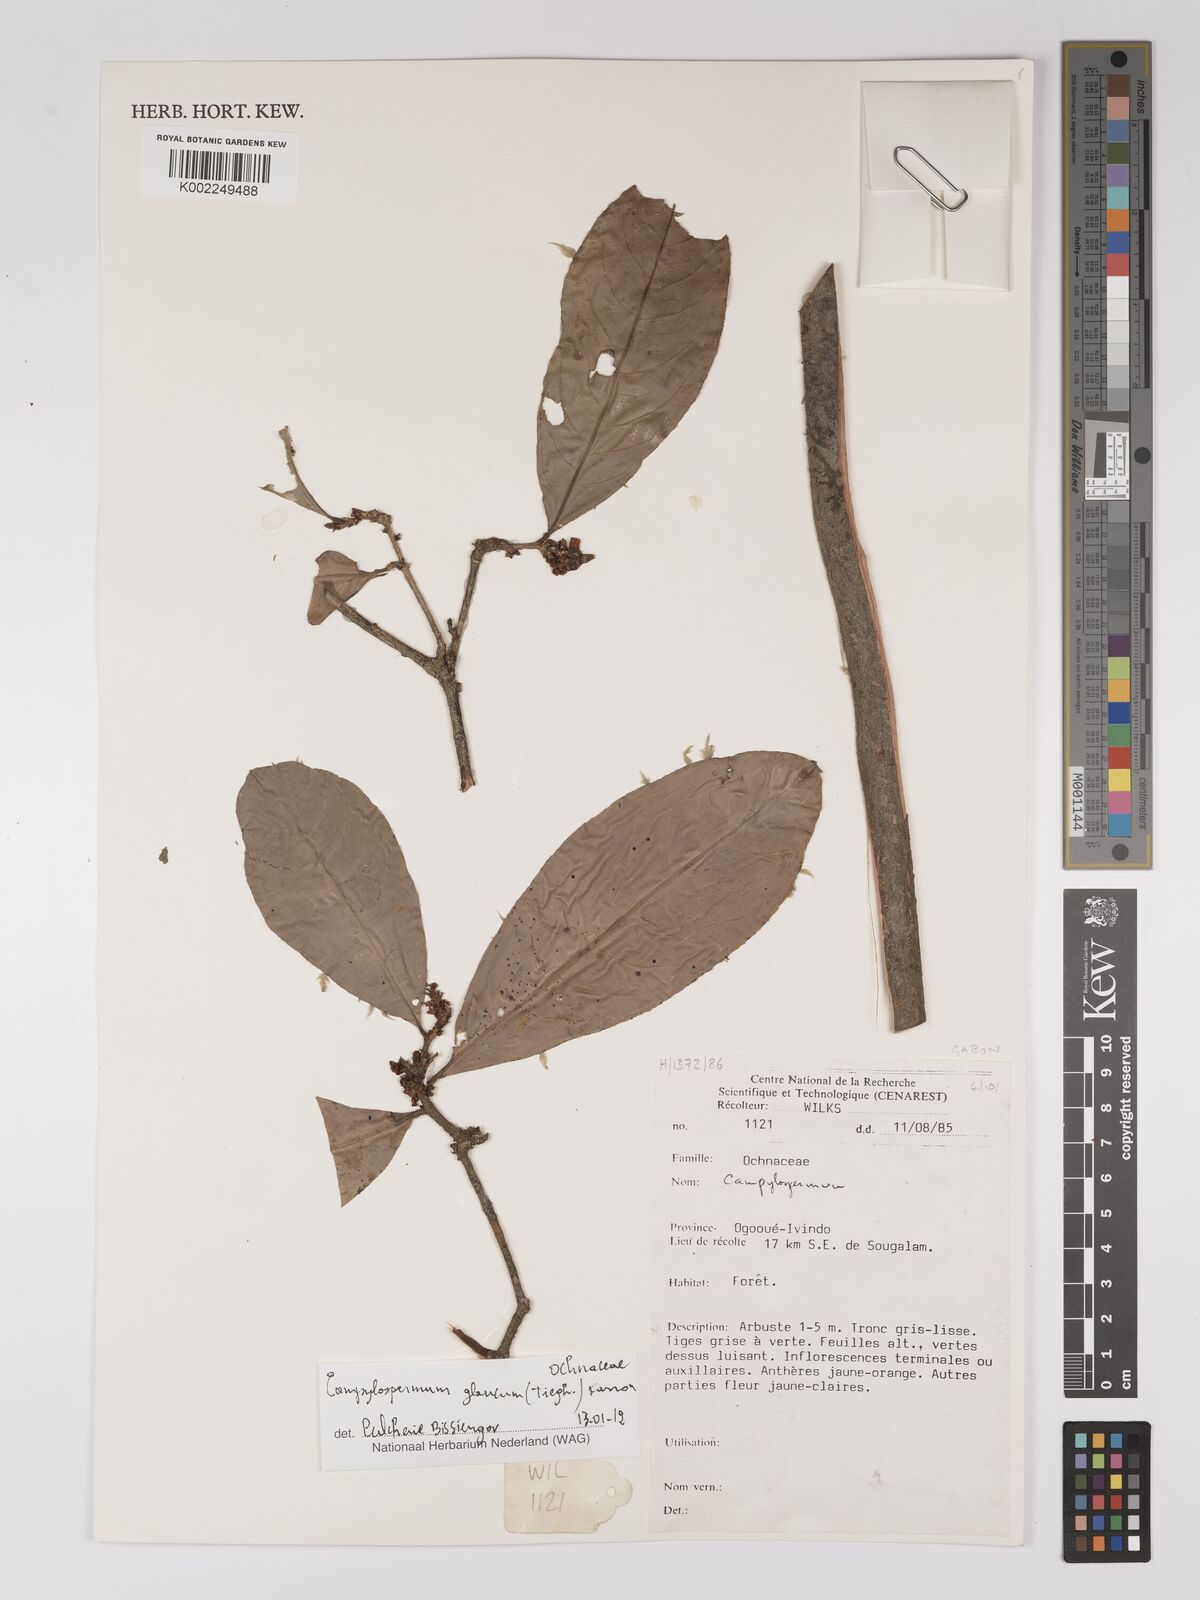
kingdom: Plantae
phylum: Tracheophyta
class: Magnoliopsida
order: Malpighiales
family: Ochnaceae
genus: Campylospermum
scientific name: Campylospermum glaucum
